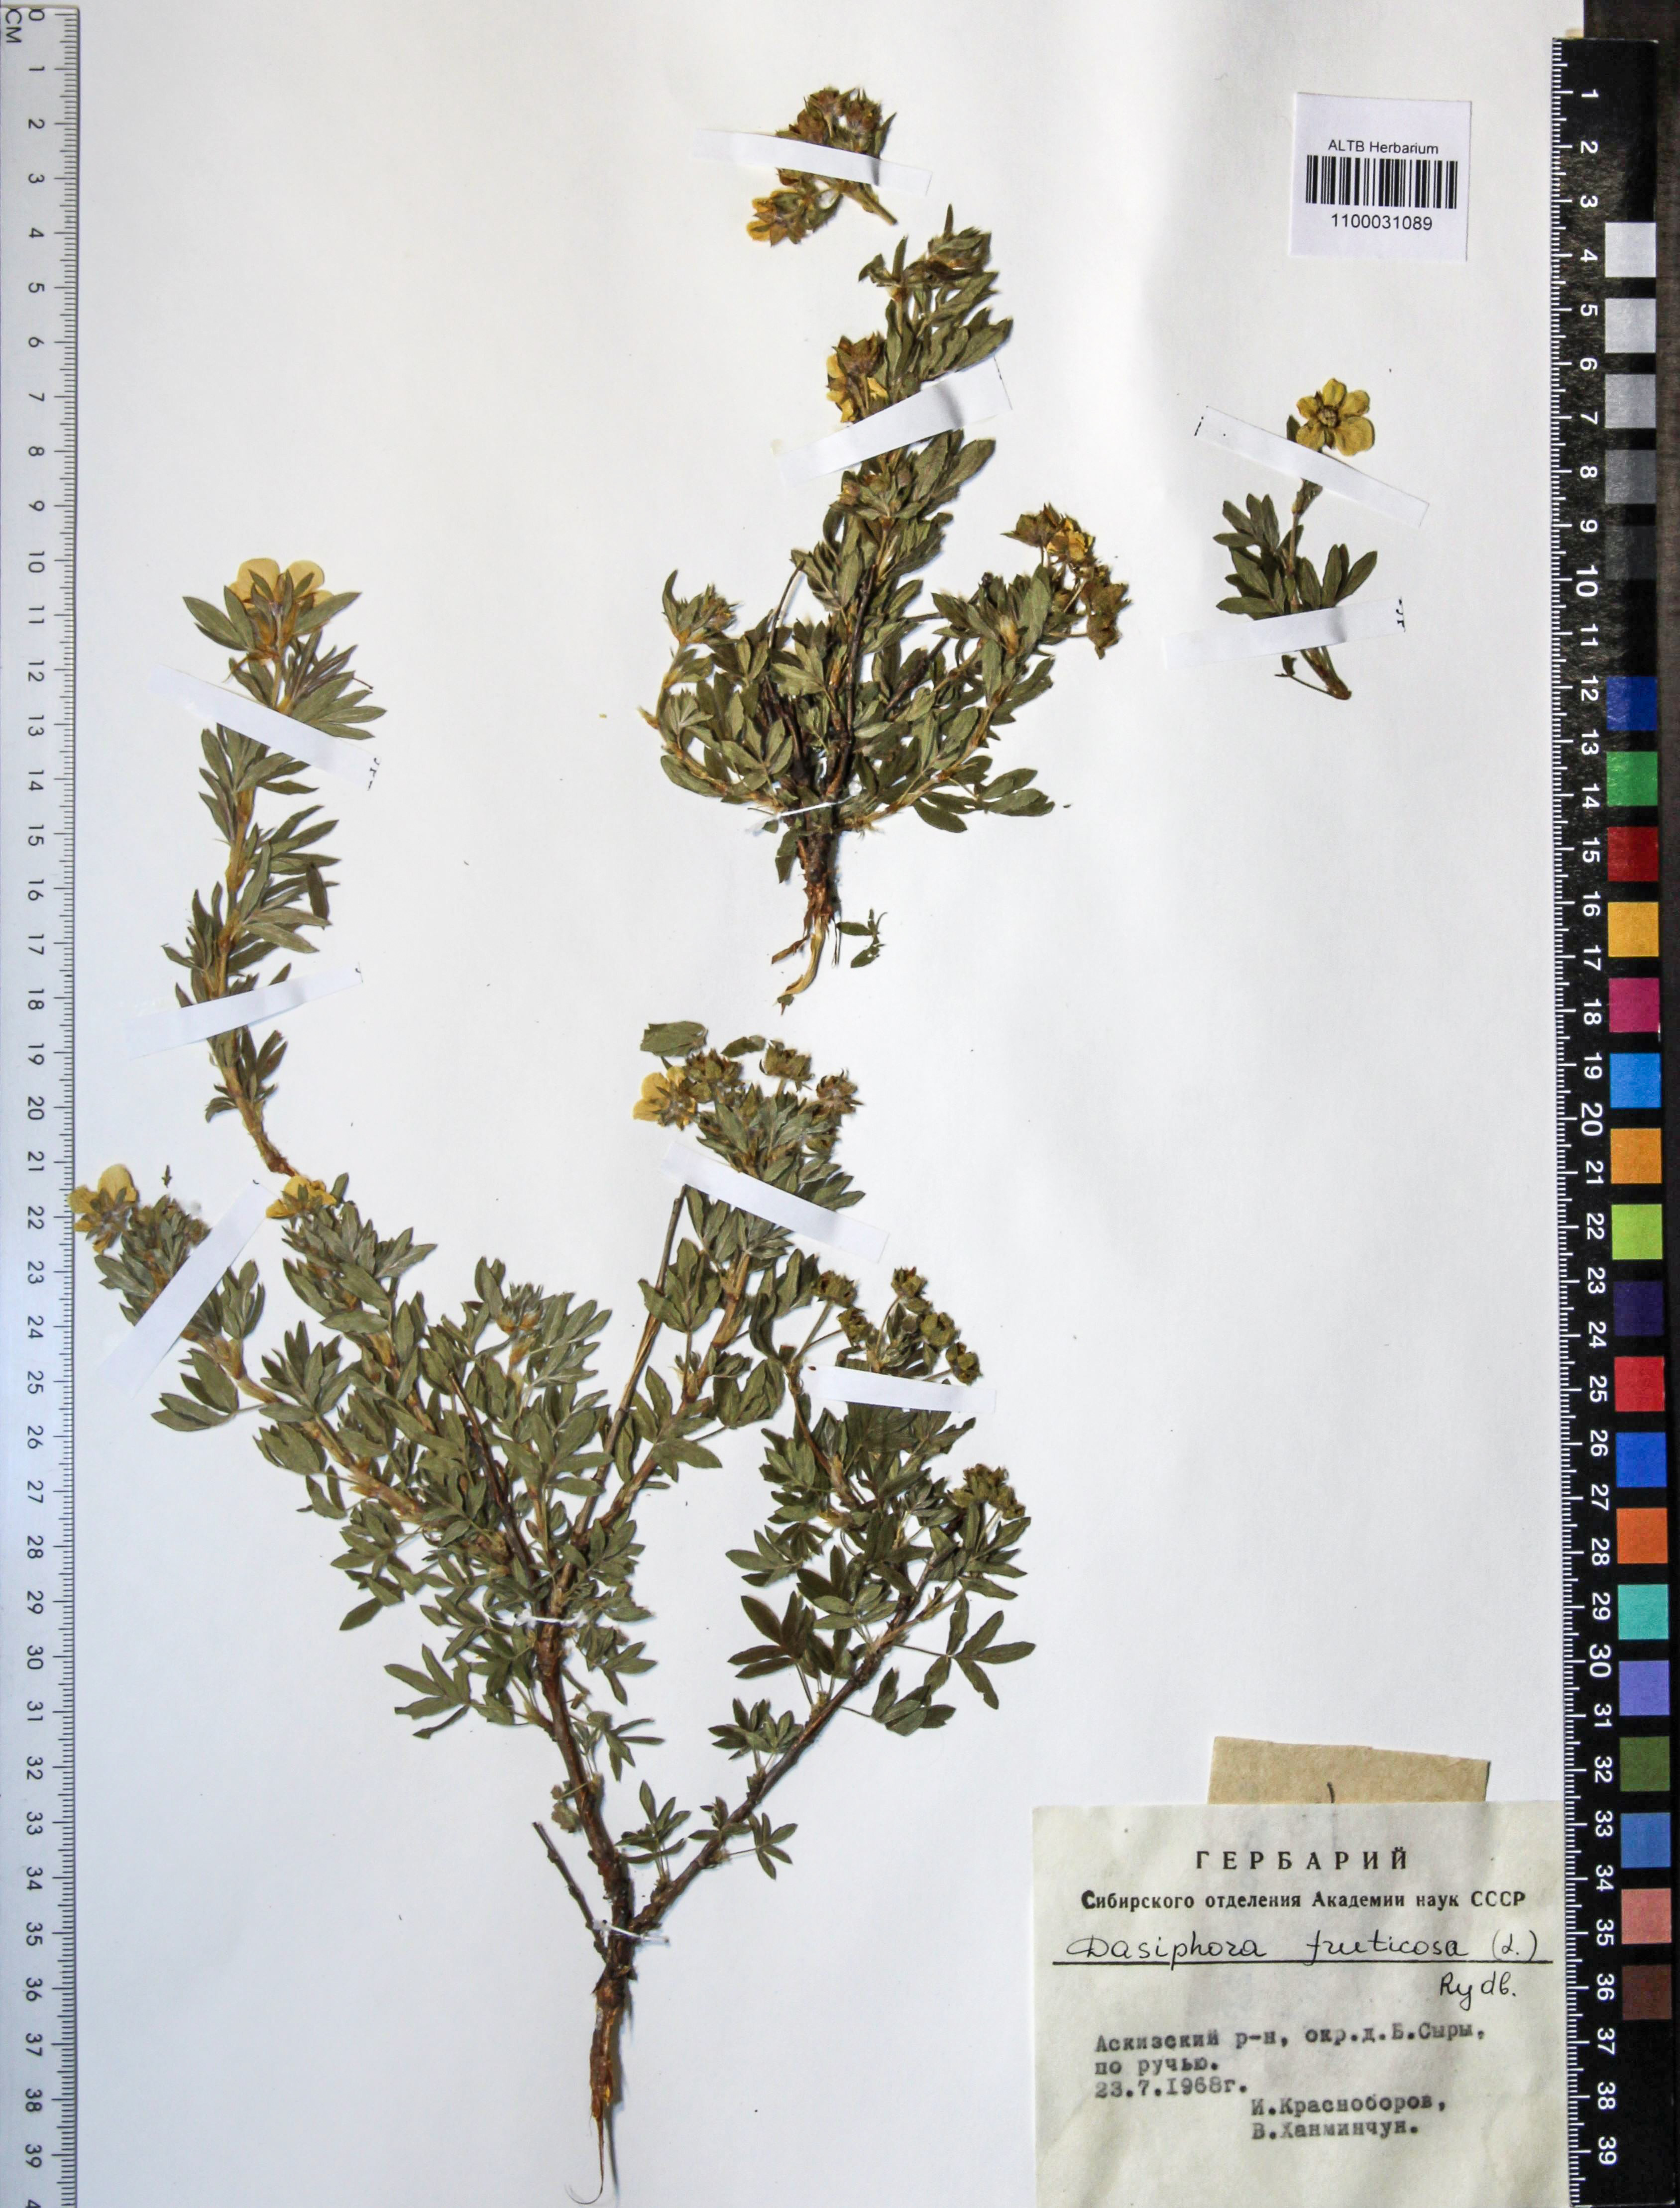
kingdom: Plantae
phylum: Tracheophyta
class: Magnoliopsida
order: Rosales
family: Rosaceae
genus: Dasiphora
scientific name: Dasiphora fruticosa
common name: Shrubby cinquefoil
